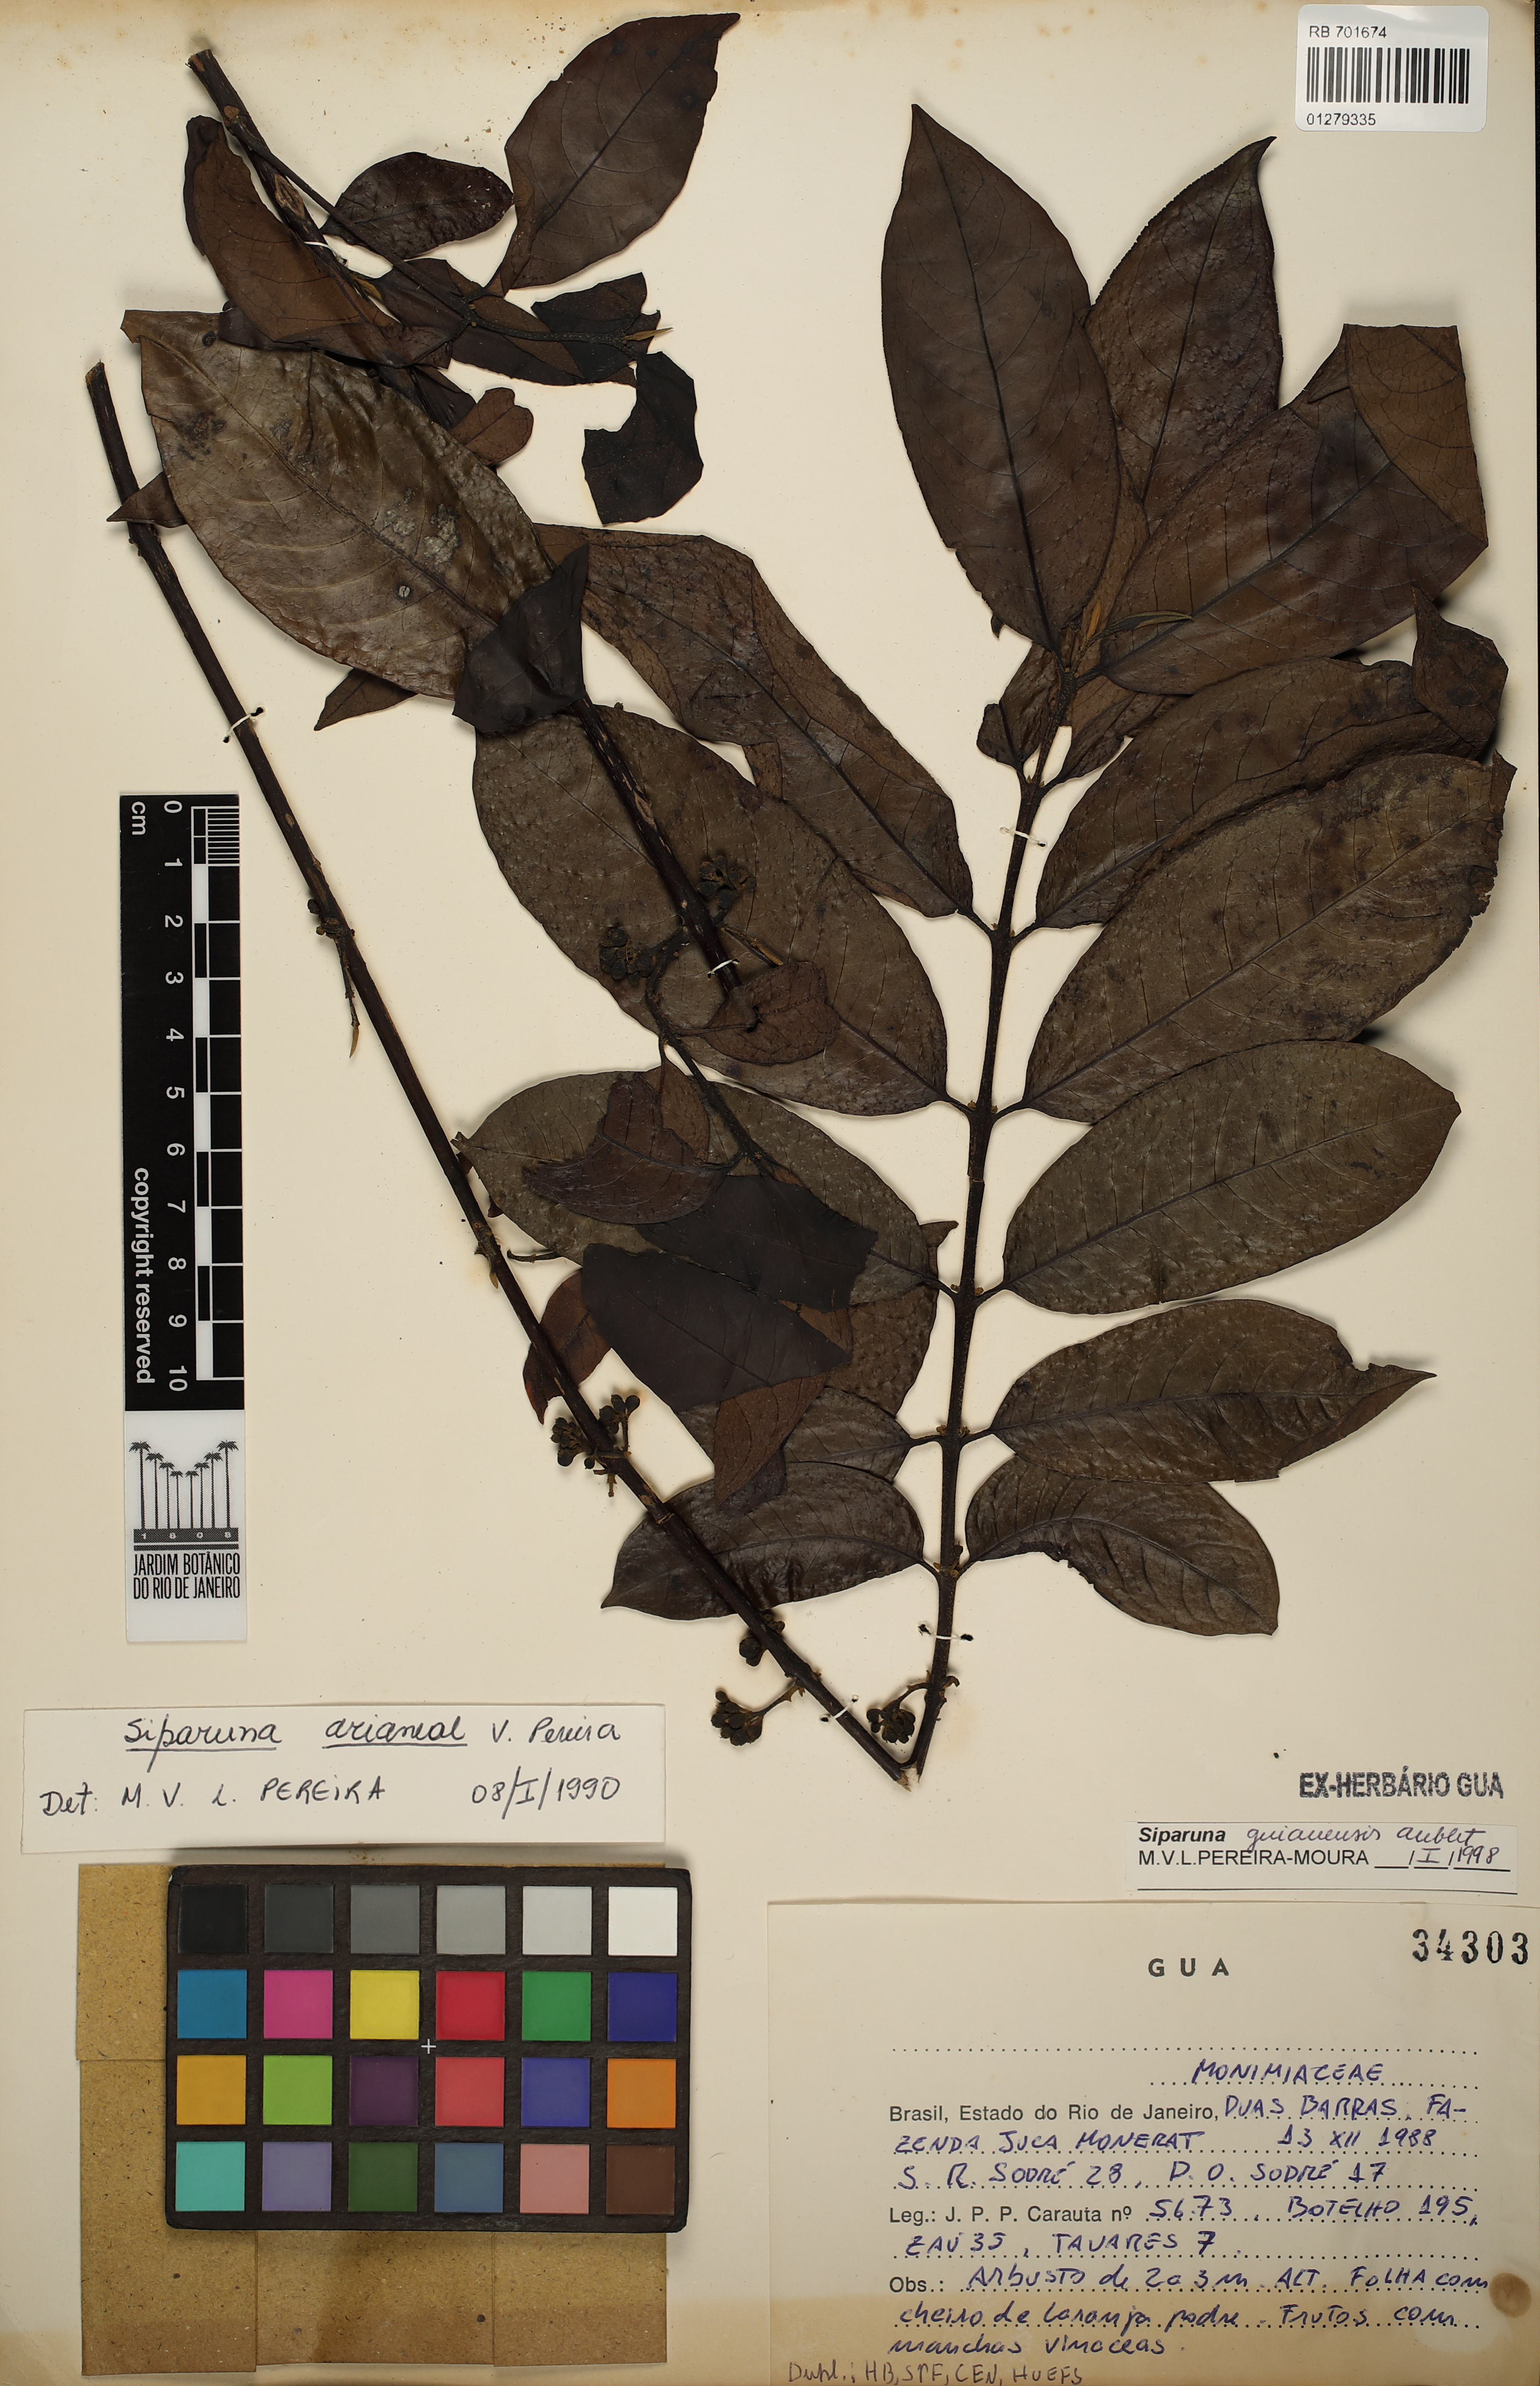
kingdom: Plantae
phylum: Tracheophyta
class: Magnoliopsida
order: Laurales
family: Siparunaceae
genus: Siparuna
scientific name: Siparuna guianensis
